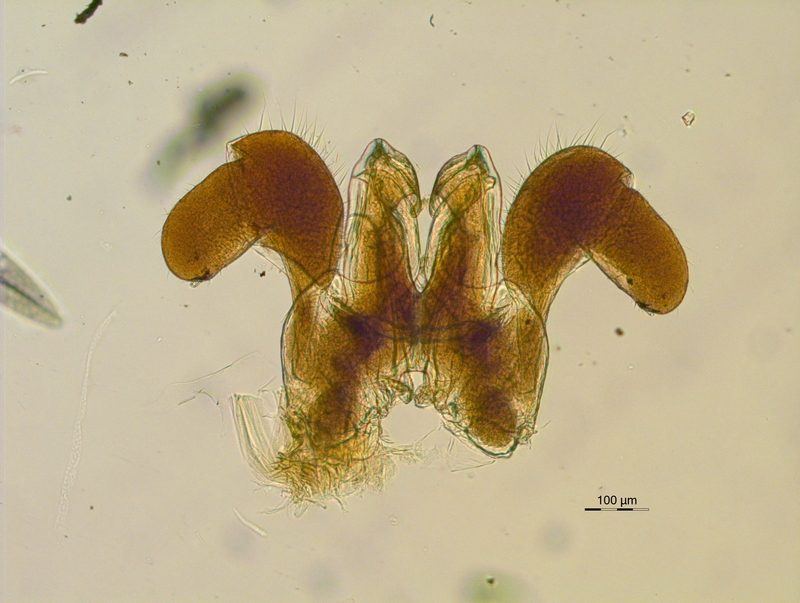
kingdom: Animalia
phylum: Arthropoda
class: Diplopoda
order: Chordeumatida
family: Diplomaragnidae
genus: Diplomaragna
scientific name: Diplomaragna gracilipes
